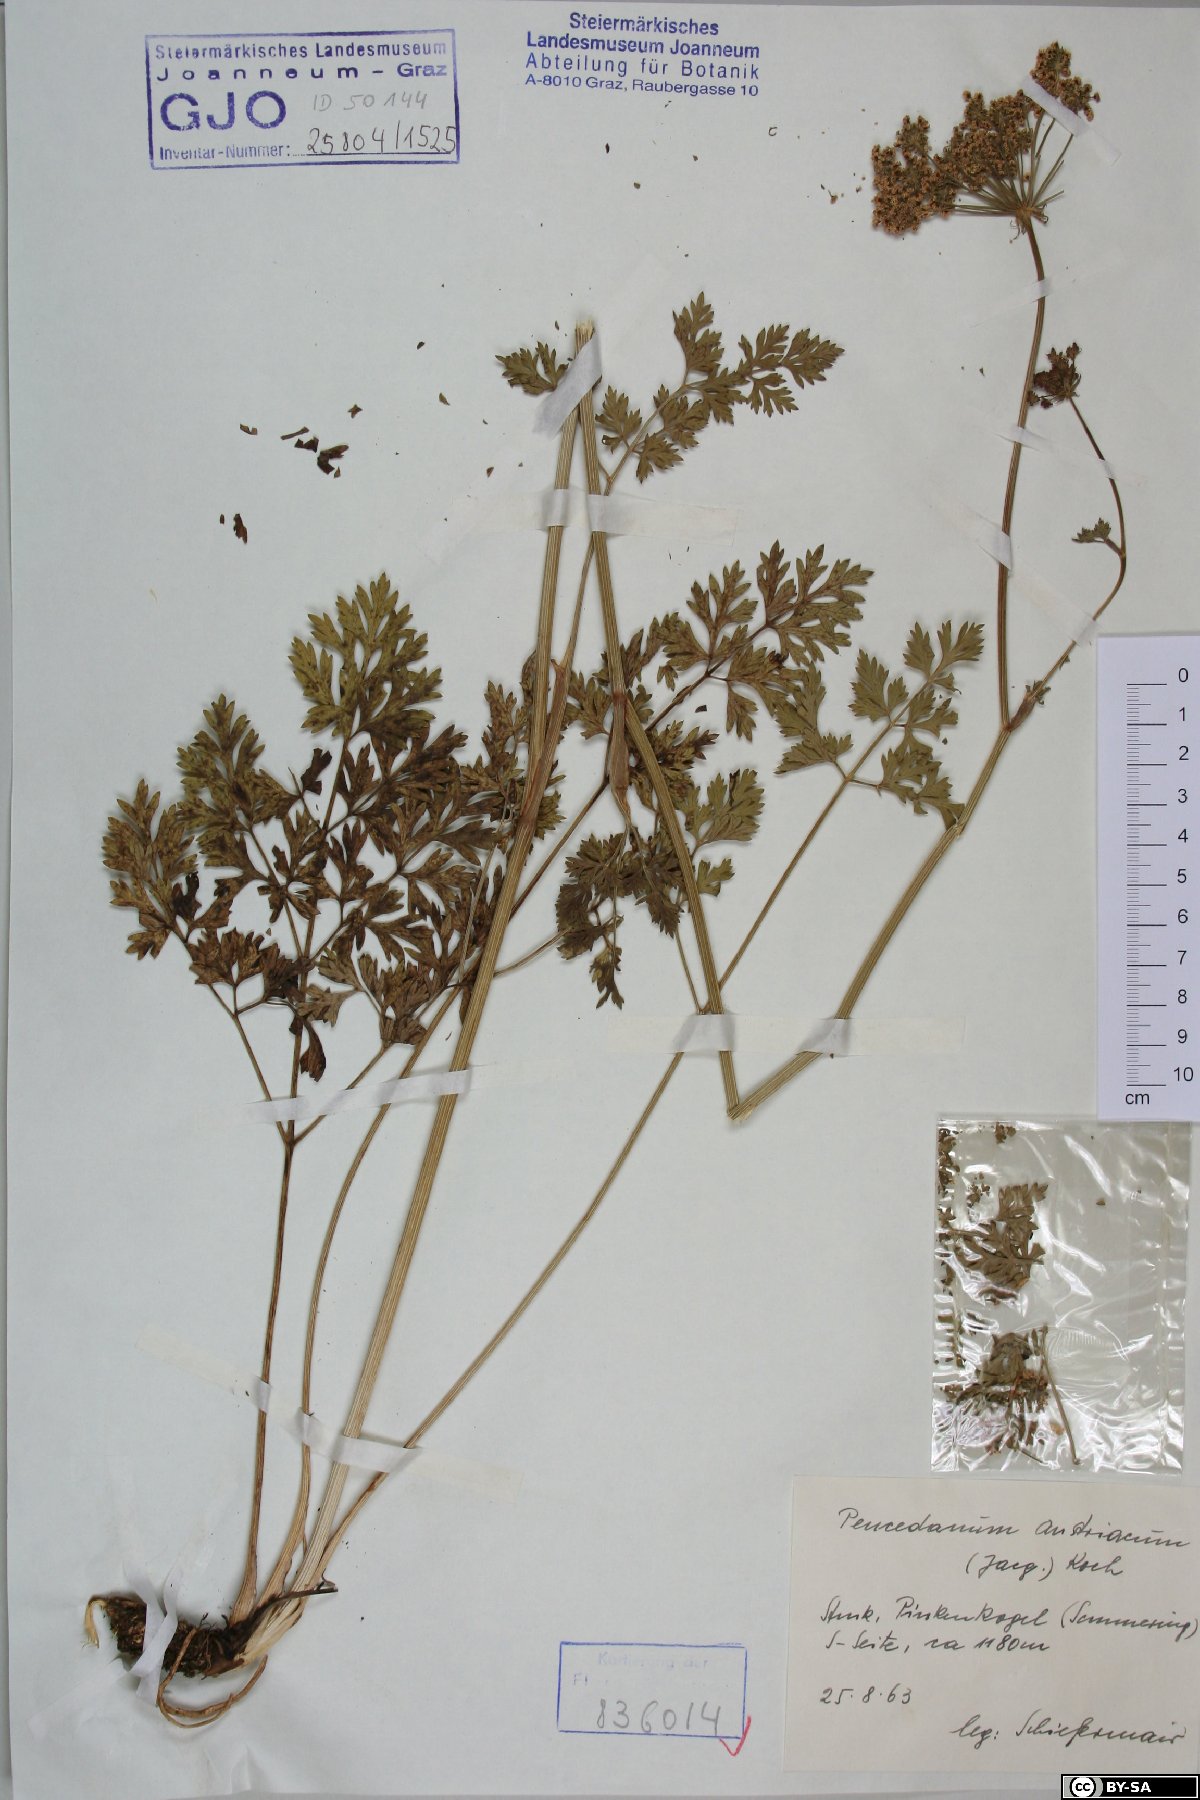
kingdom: Plantae
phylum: Tracheophyta
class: Magnoliopsida
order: Apiales
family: Apiaceae
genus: Peucedanum
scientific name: Peucedanum austriacum
